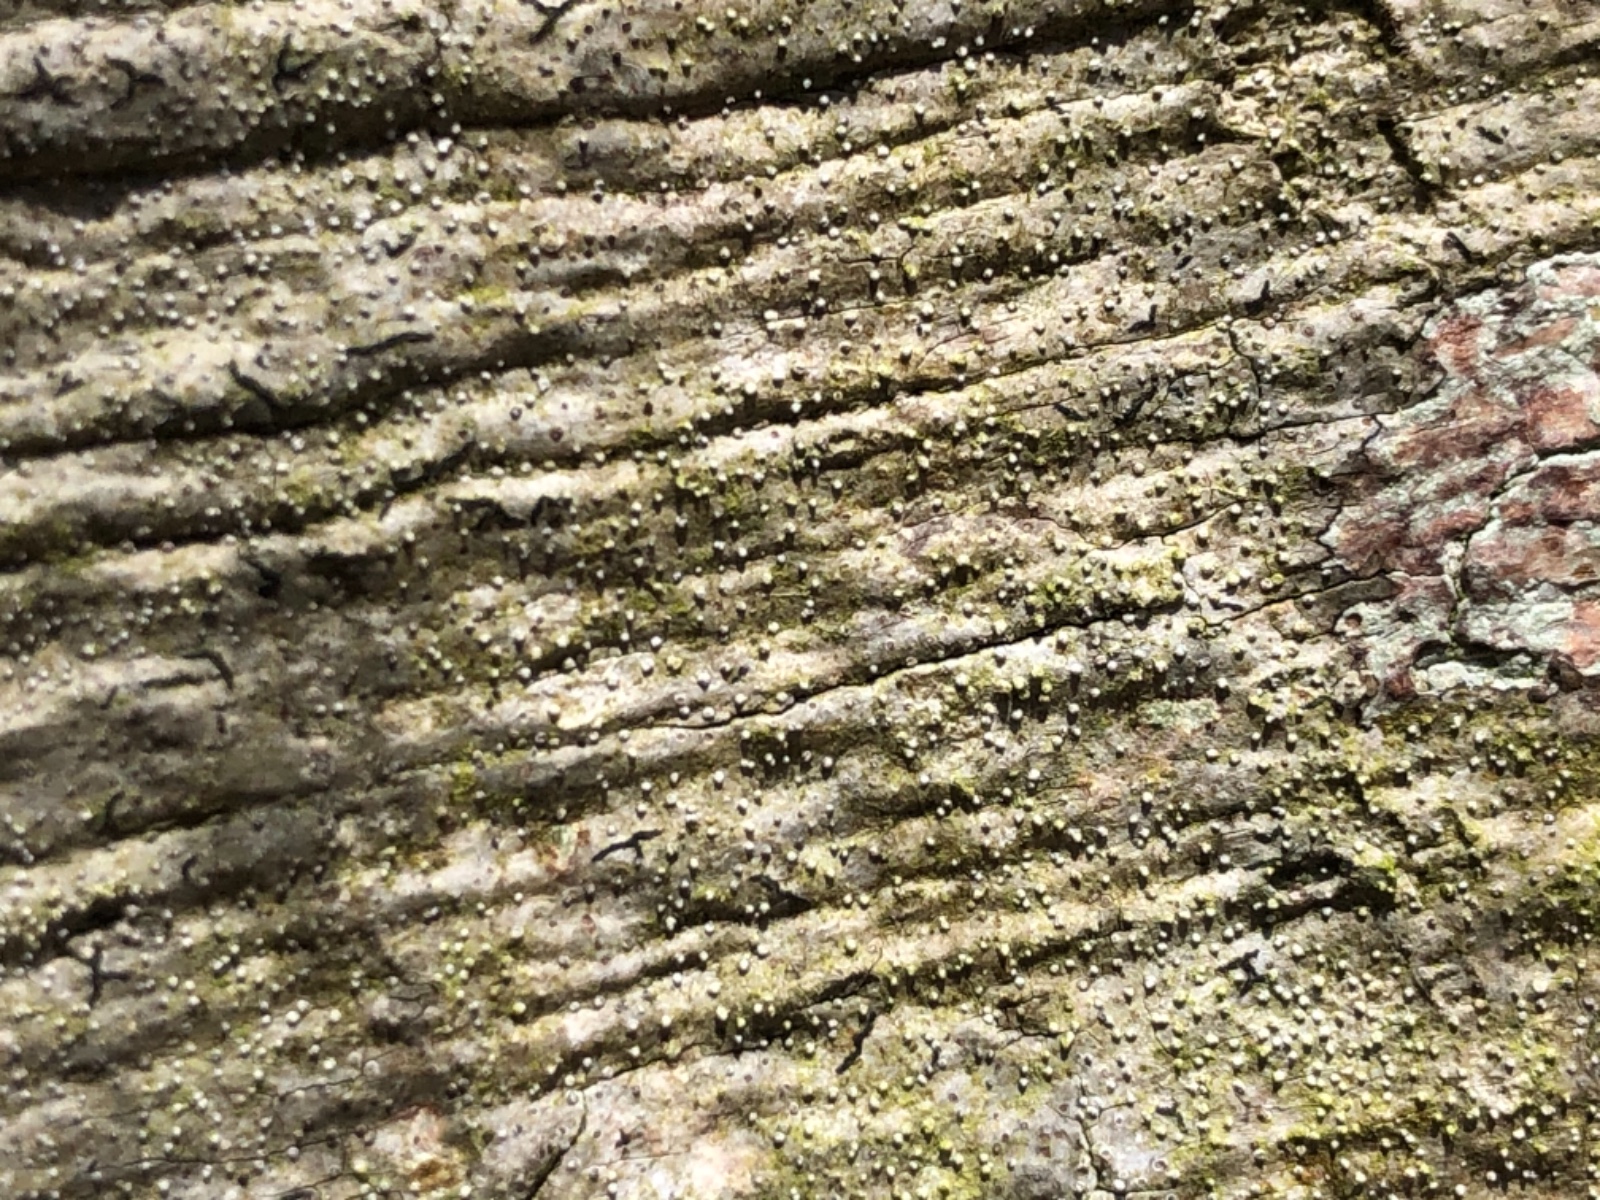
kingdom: Fungi
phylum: Ascomycota
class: Arthoniomycetes
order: Arthoniales
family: Opegraphaceae
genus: Opegrapha
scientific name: Opegrapha vermicellifera
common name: nåleprikket bogstavlav
